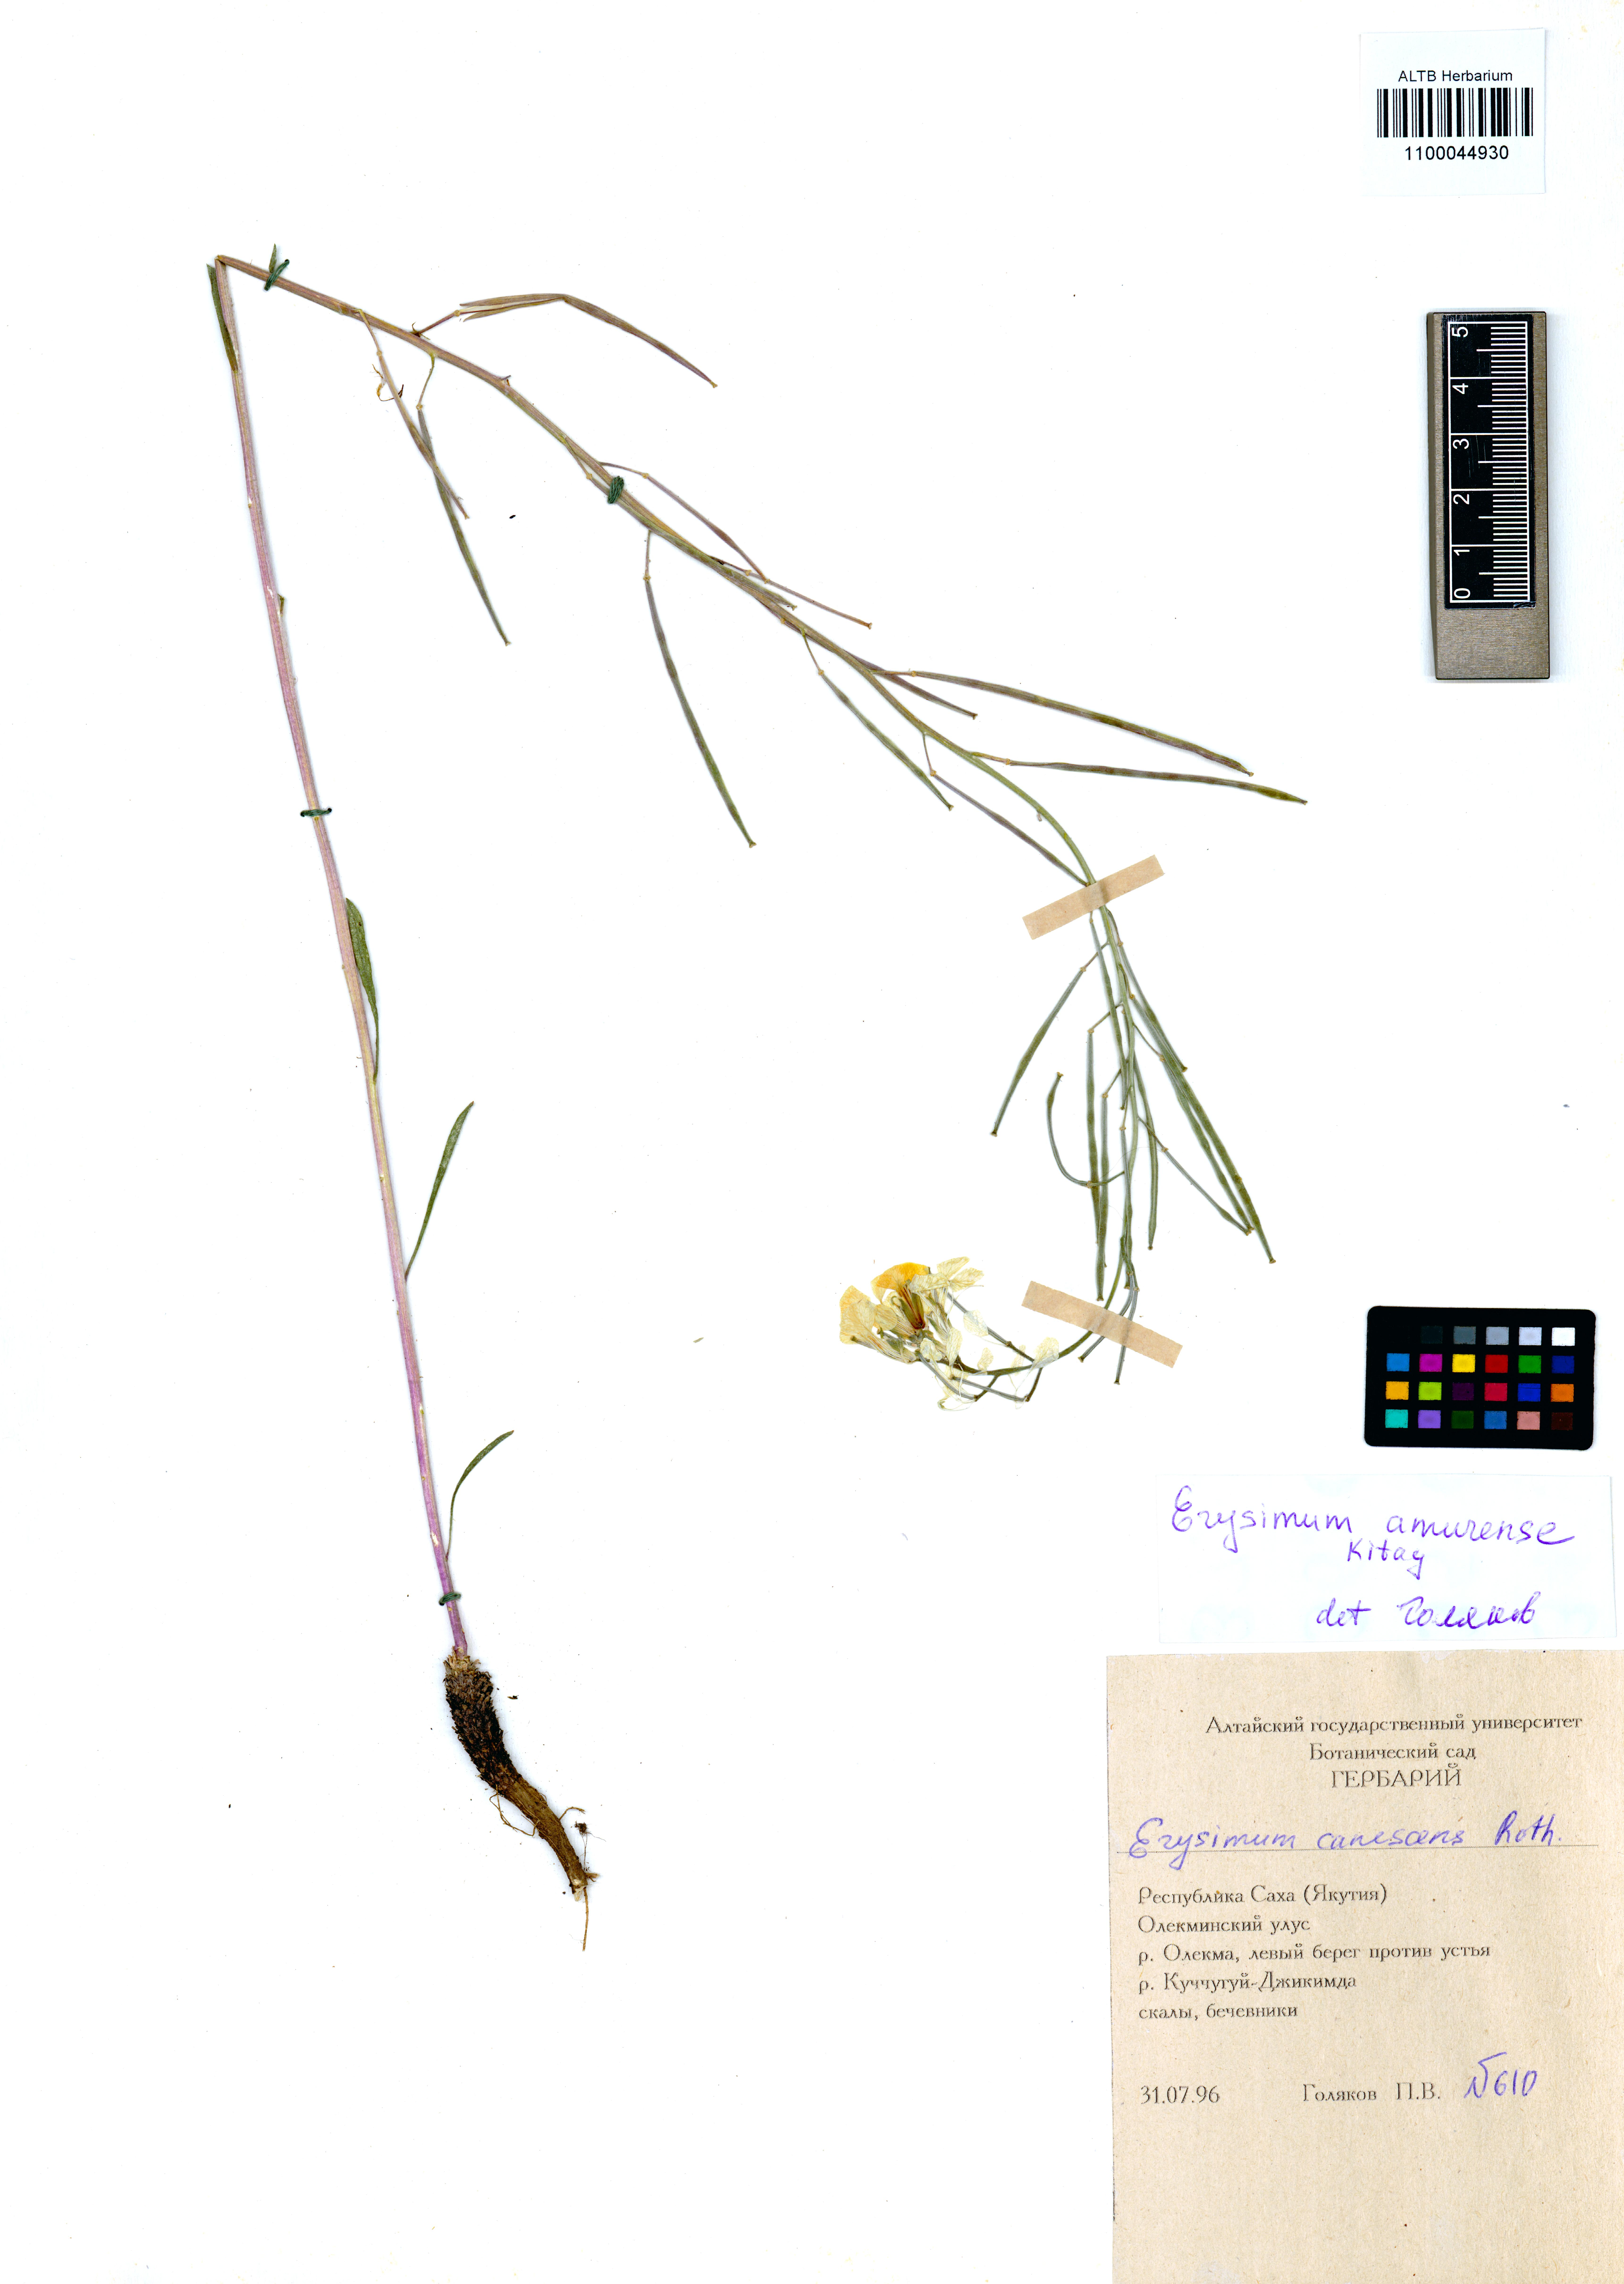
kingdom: Plantae
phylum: Tracheophyta
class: Magnoliopsida
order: Brassicales
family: Brassicaceae
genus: Erysimum
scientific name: Erysimum amurense
